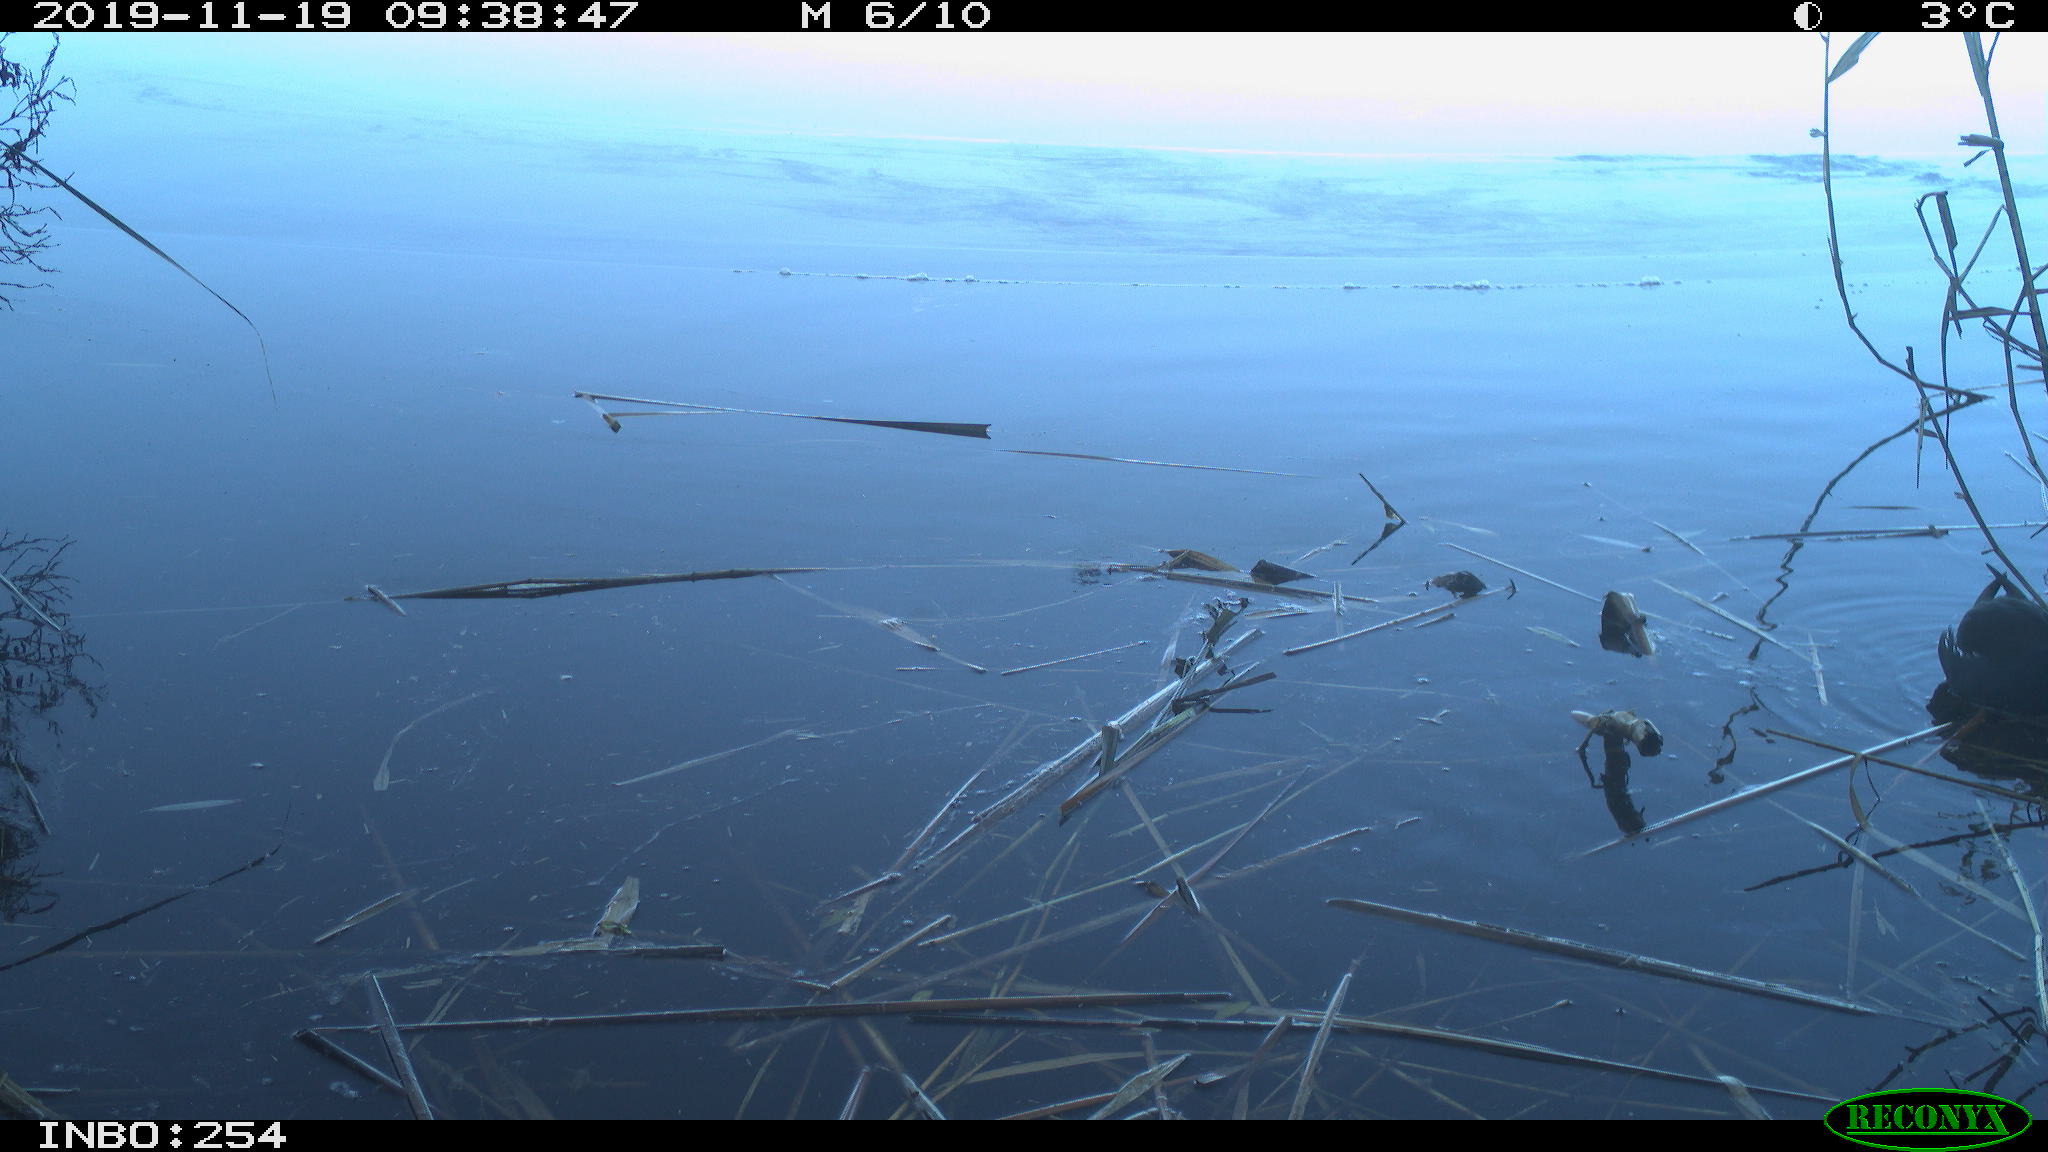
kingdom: Animalia
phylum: Chordata
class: Aves
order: Gruiformes
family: Rallidae
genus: Gallinula
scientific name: Gallinula chloropus
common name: Common moorhen
